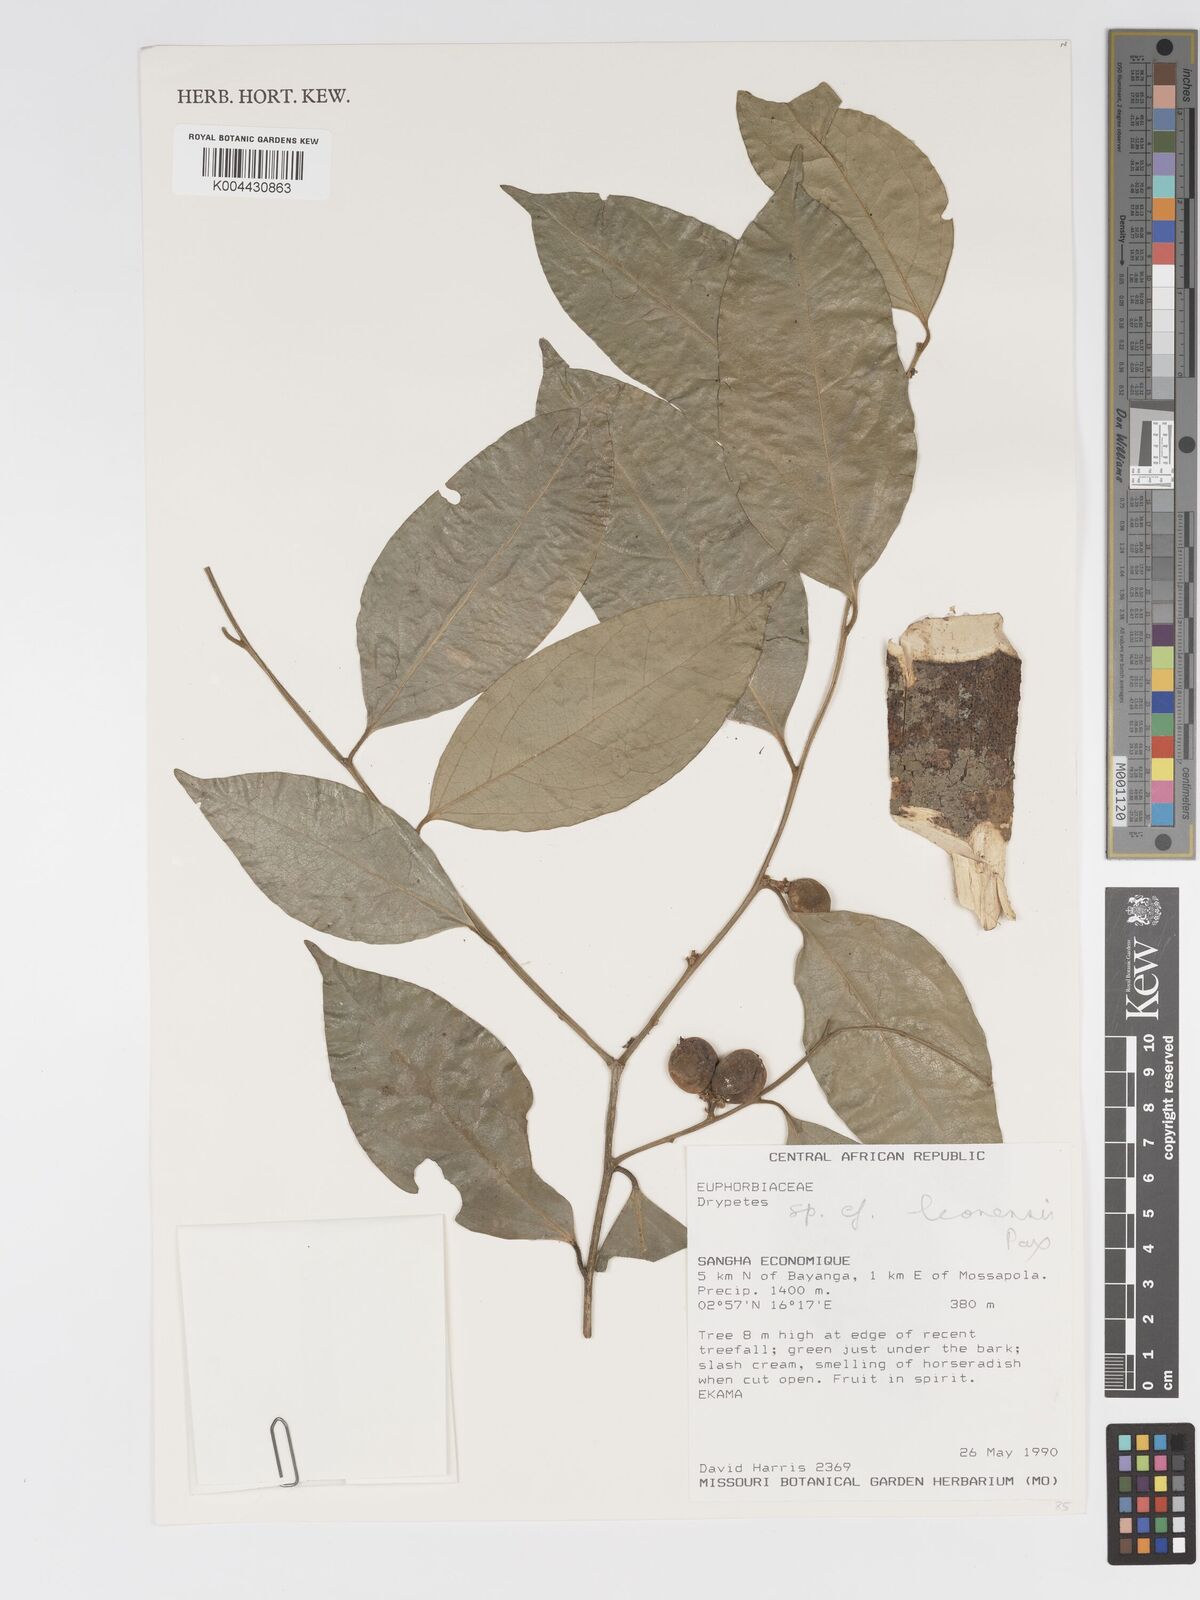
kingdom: Plantae
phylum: Tracheophyta
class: Magnoliopsida
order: Malpighiales
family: Putranjivaceae
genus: Drypetes
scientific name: Drypetes
